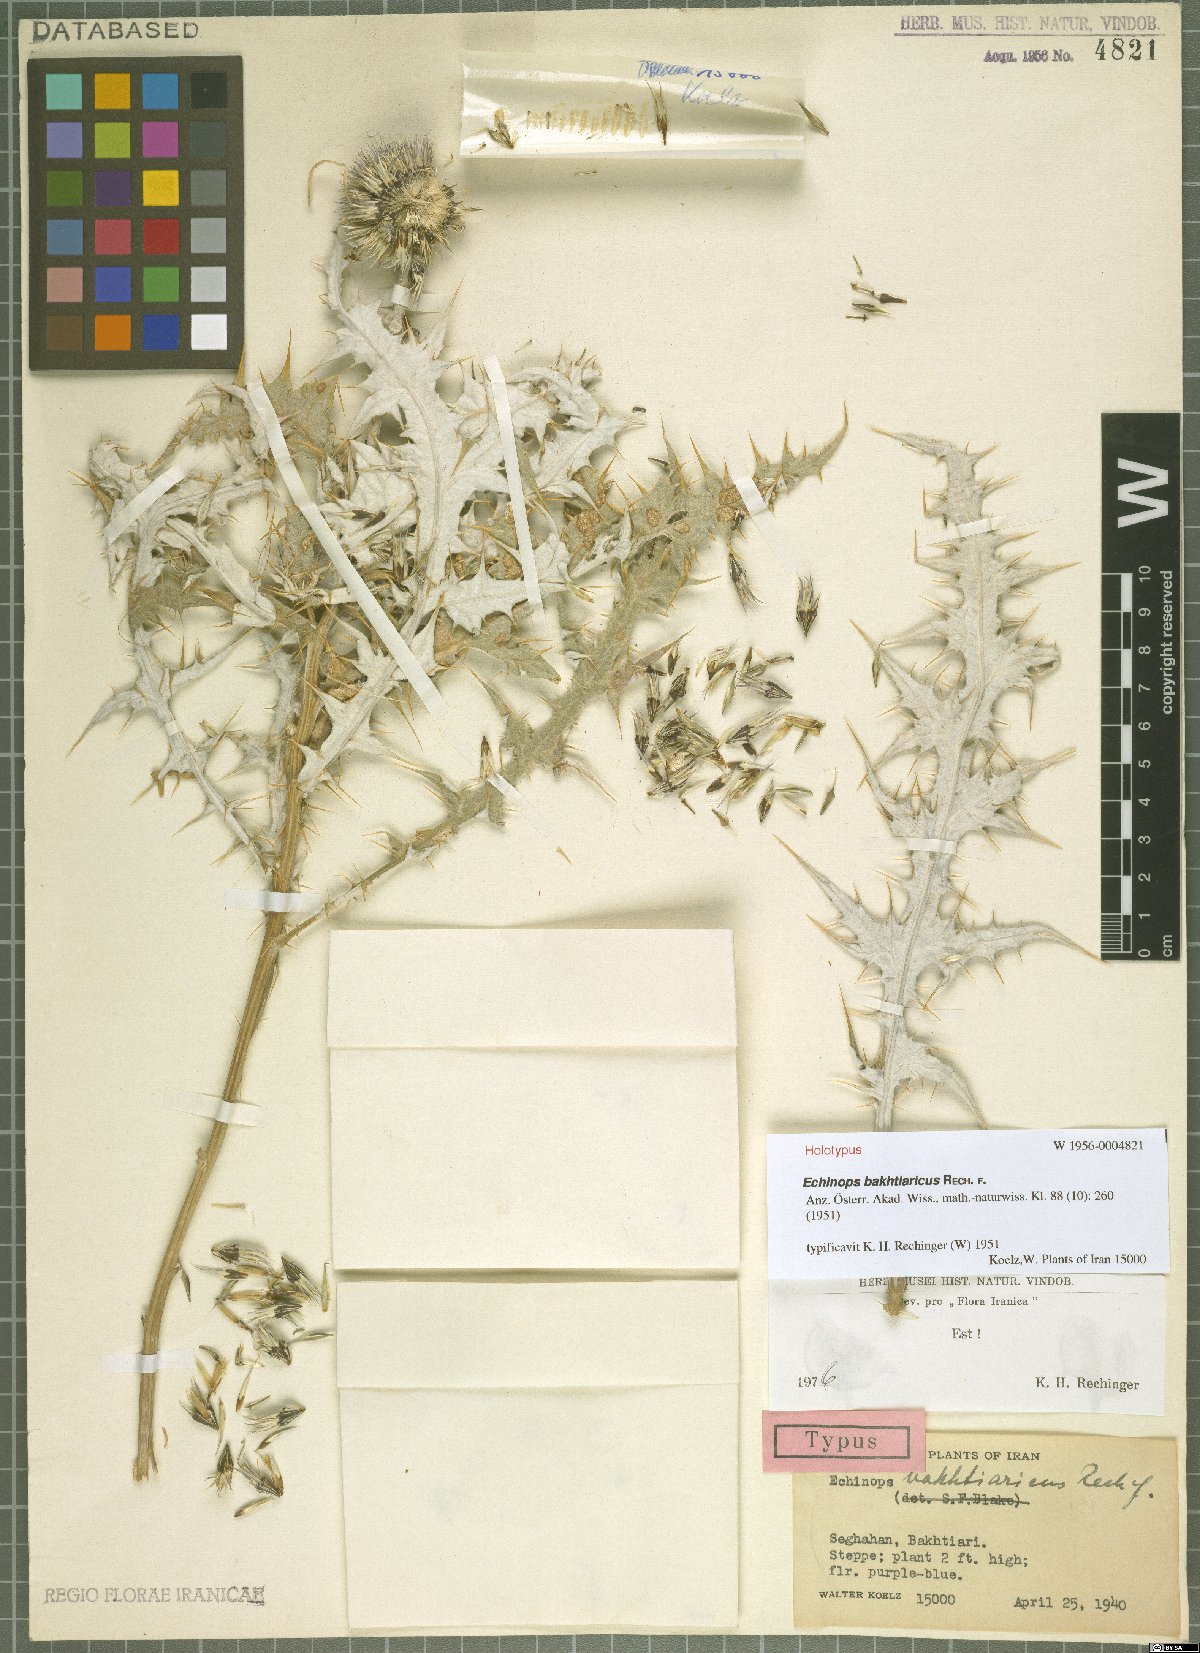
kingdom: Plantae
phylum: Tracheophyta
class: Magnoliopsida
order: Asterales
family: Asteraceae
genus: Echinops
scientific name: Echinops bakhtiaricus
